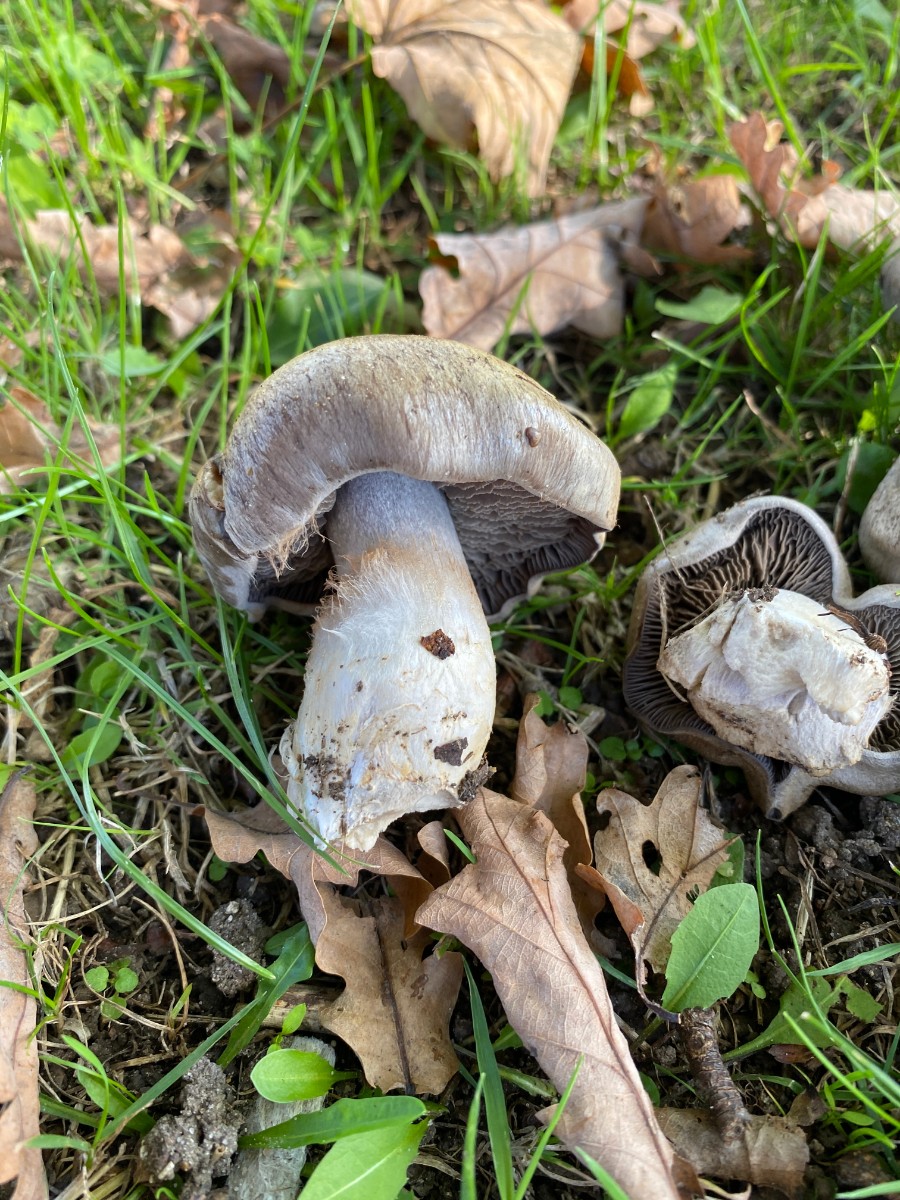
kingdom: Fungi
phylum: Basidiomycota
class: Agaricomycetes
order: Agaricales
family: Cortinariaceae
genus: Cortinarius
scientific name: Cortinarius
